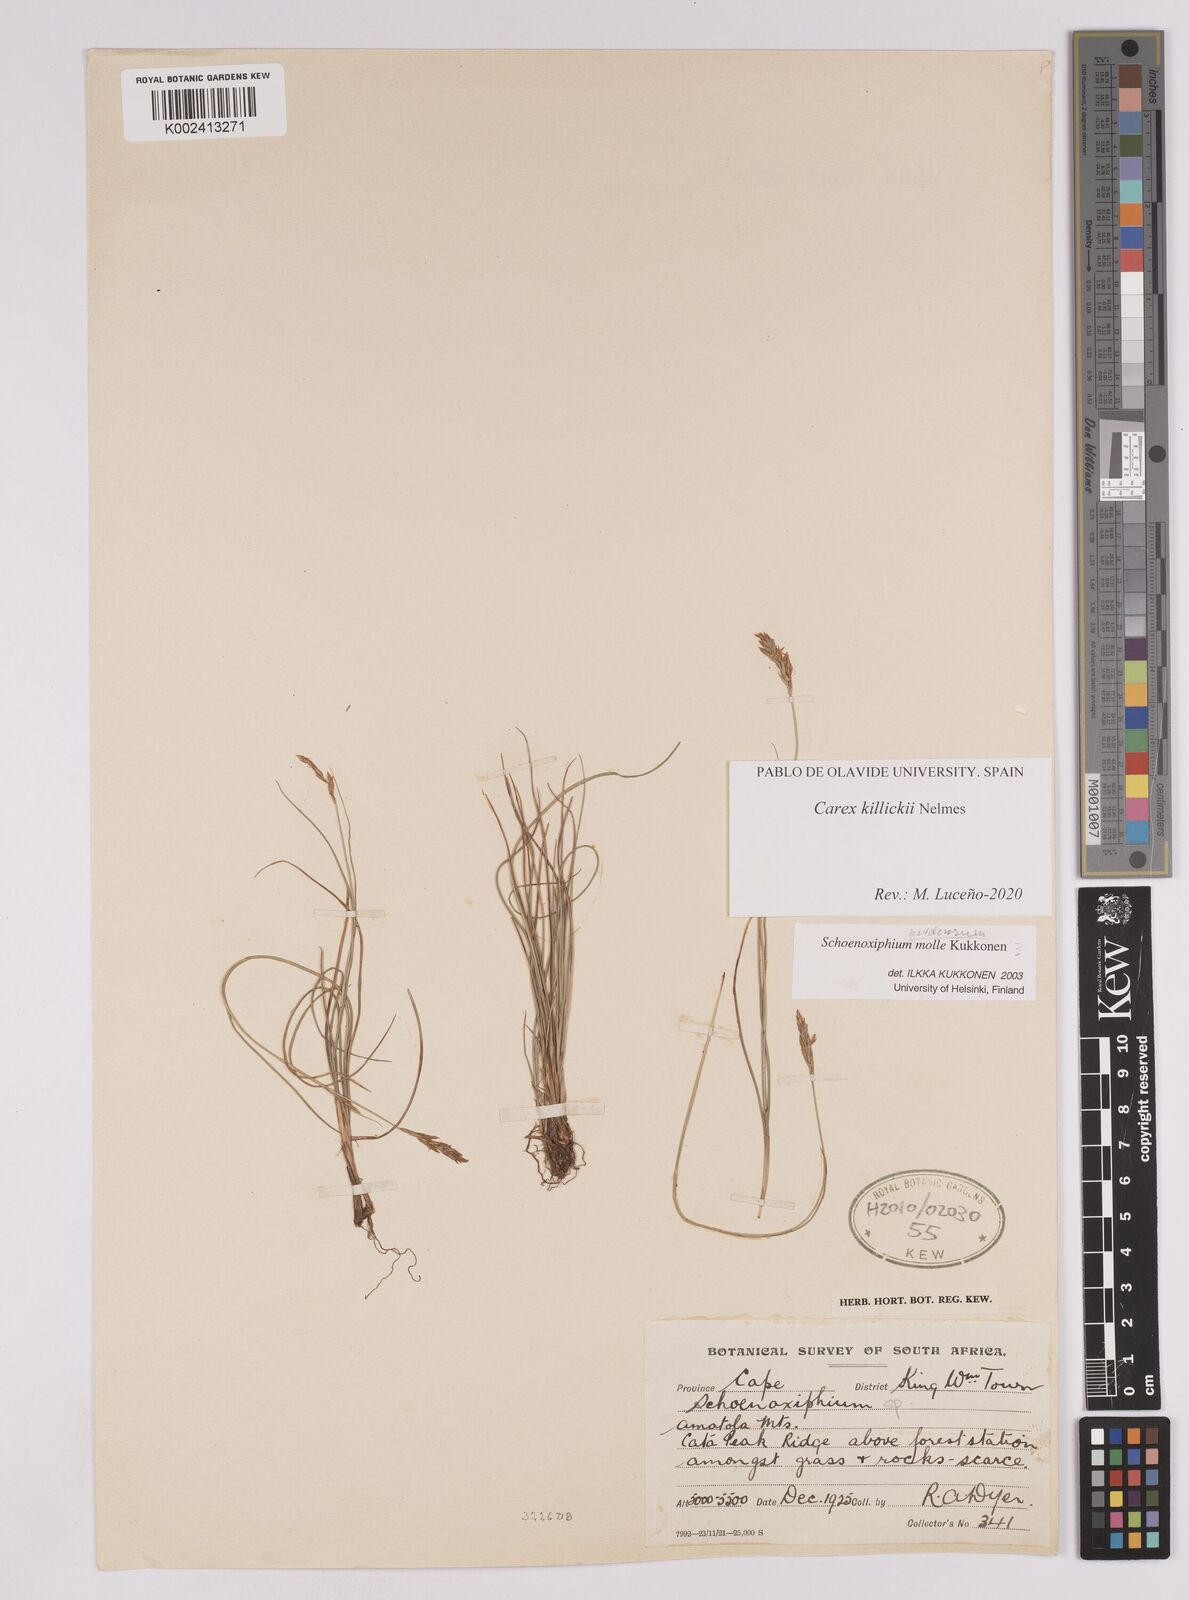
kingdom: Plantae
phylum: Tracheophyta
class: Liliopsida
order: Poales
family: Cyperaceae
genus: Carex
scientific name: Carex
